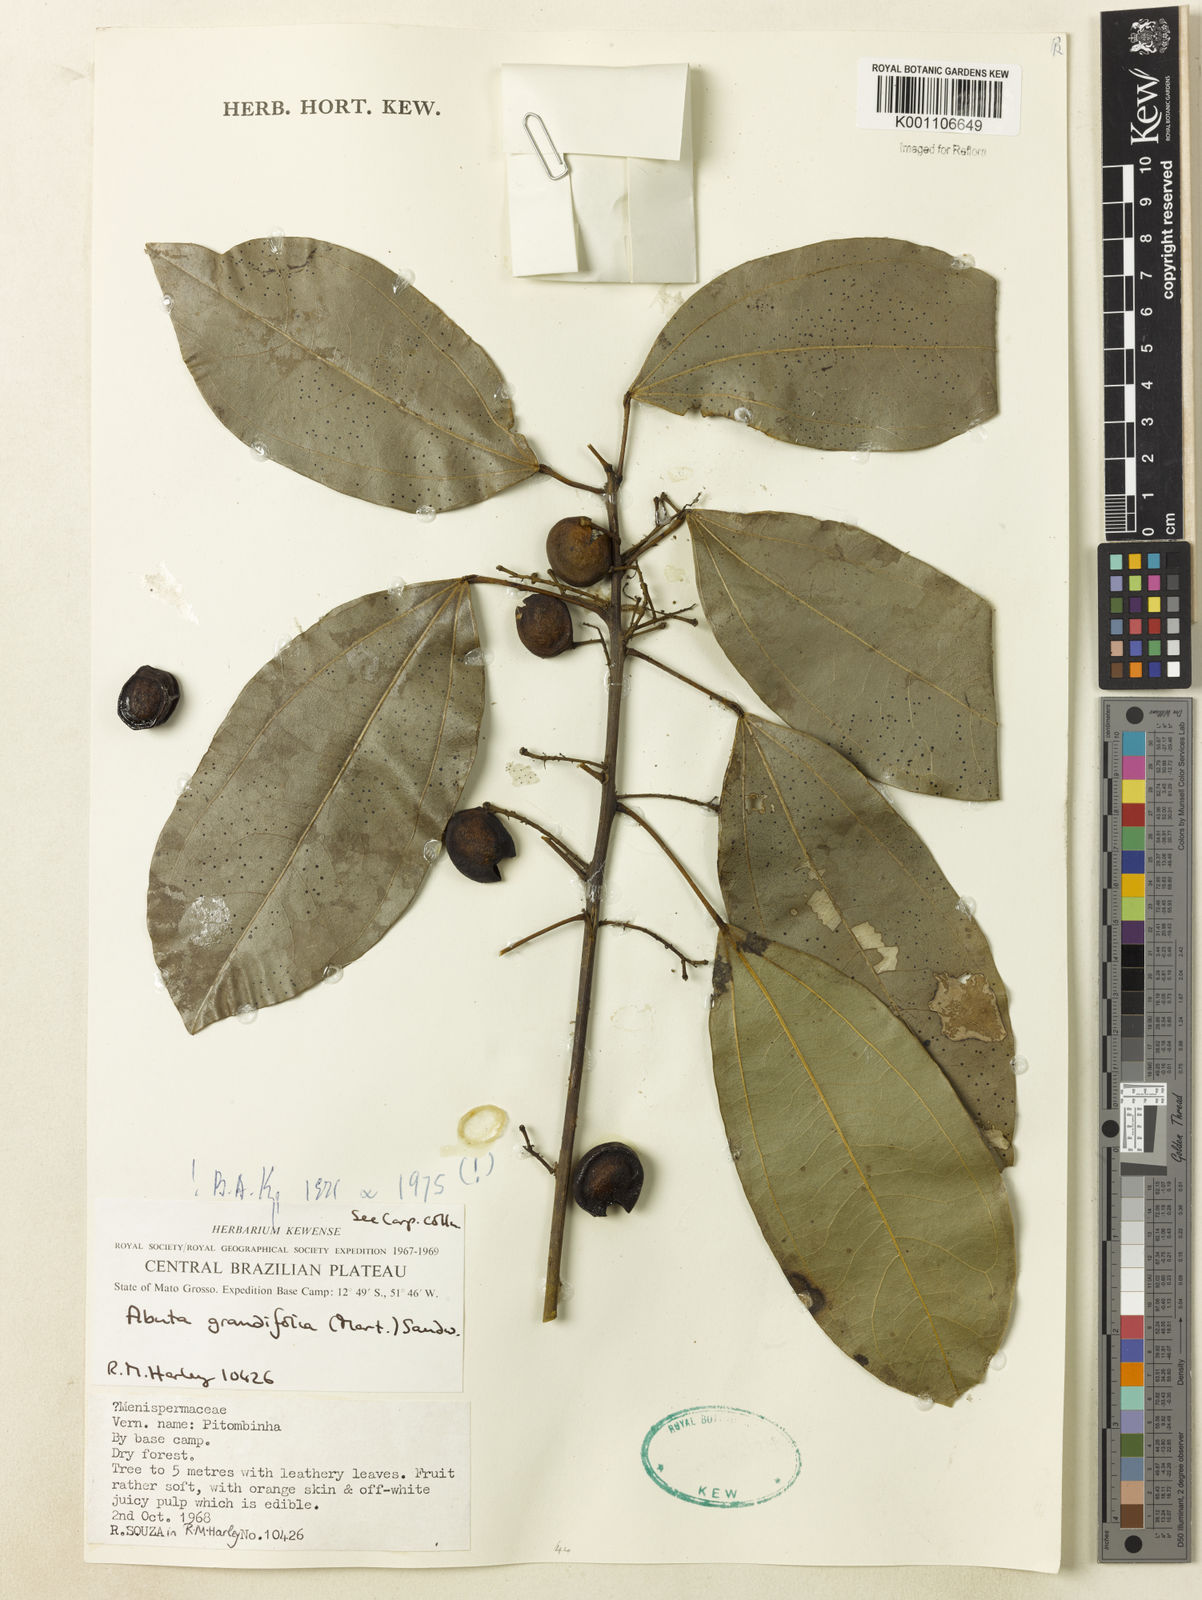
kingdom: Plantae
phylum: Tracheophyta
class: Magnoliopsida
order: Ranunculales
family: Menispermaceae
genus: Abuta
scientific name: Abuta grandifolia
